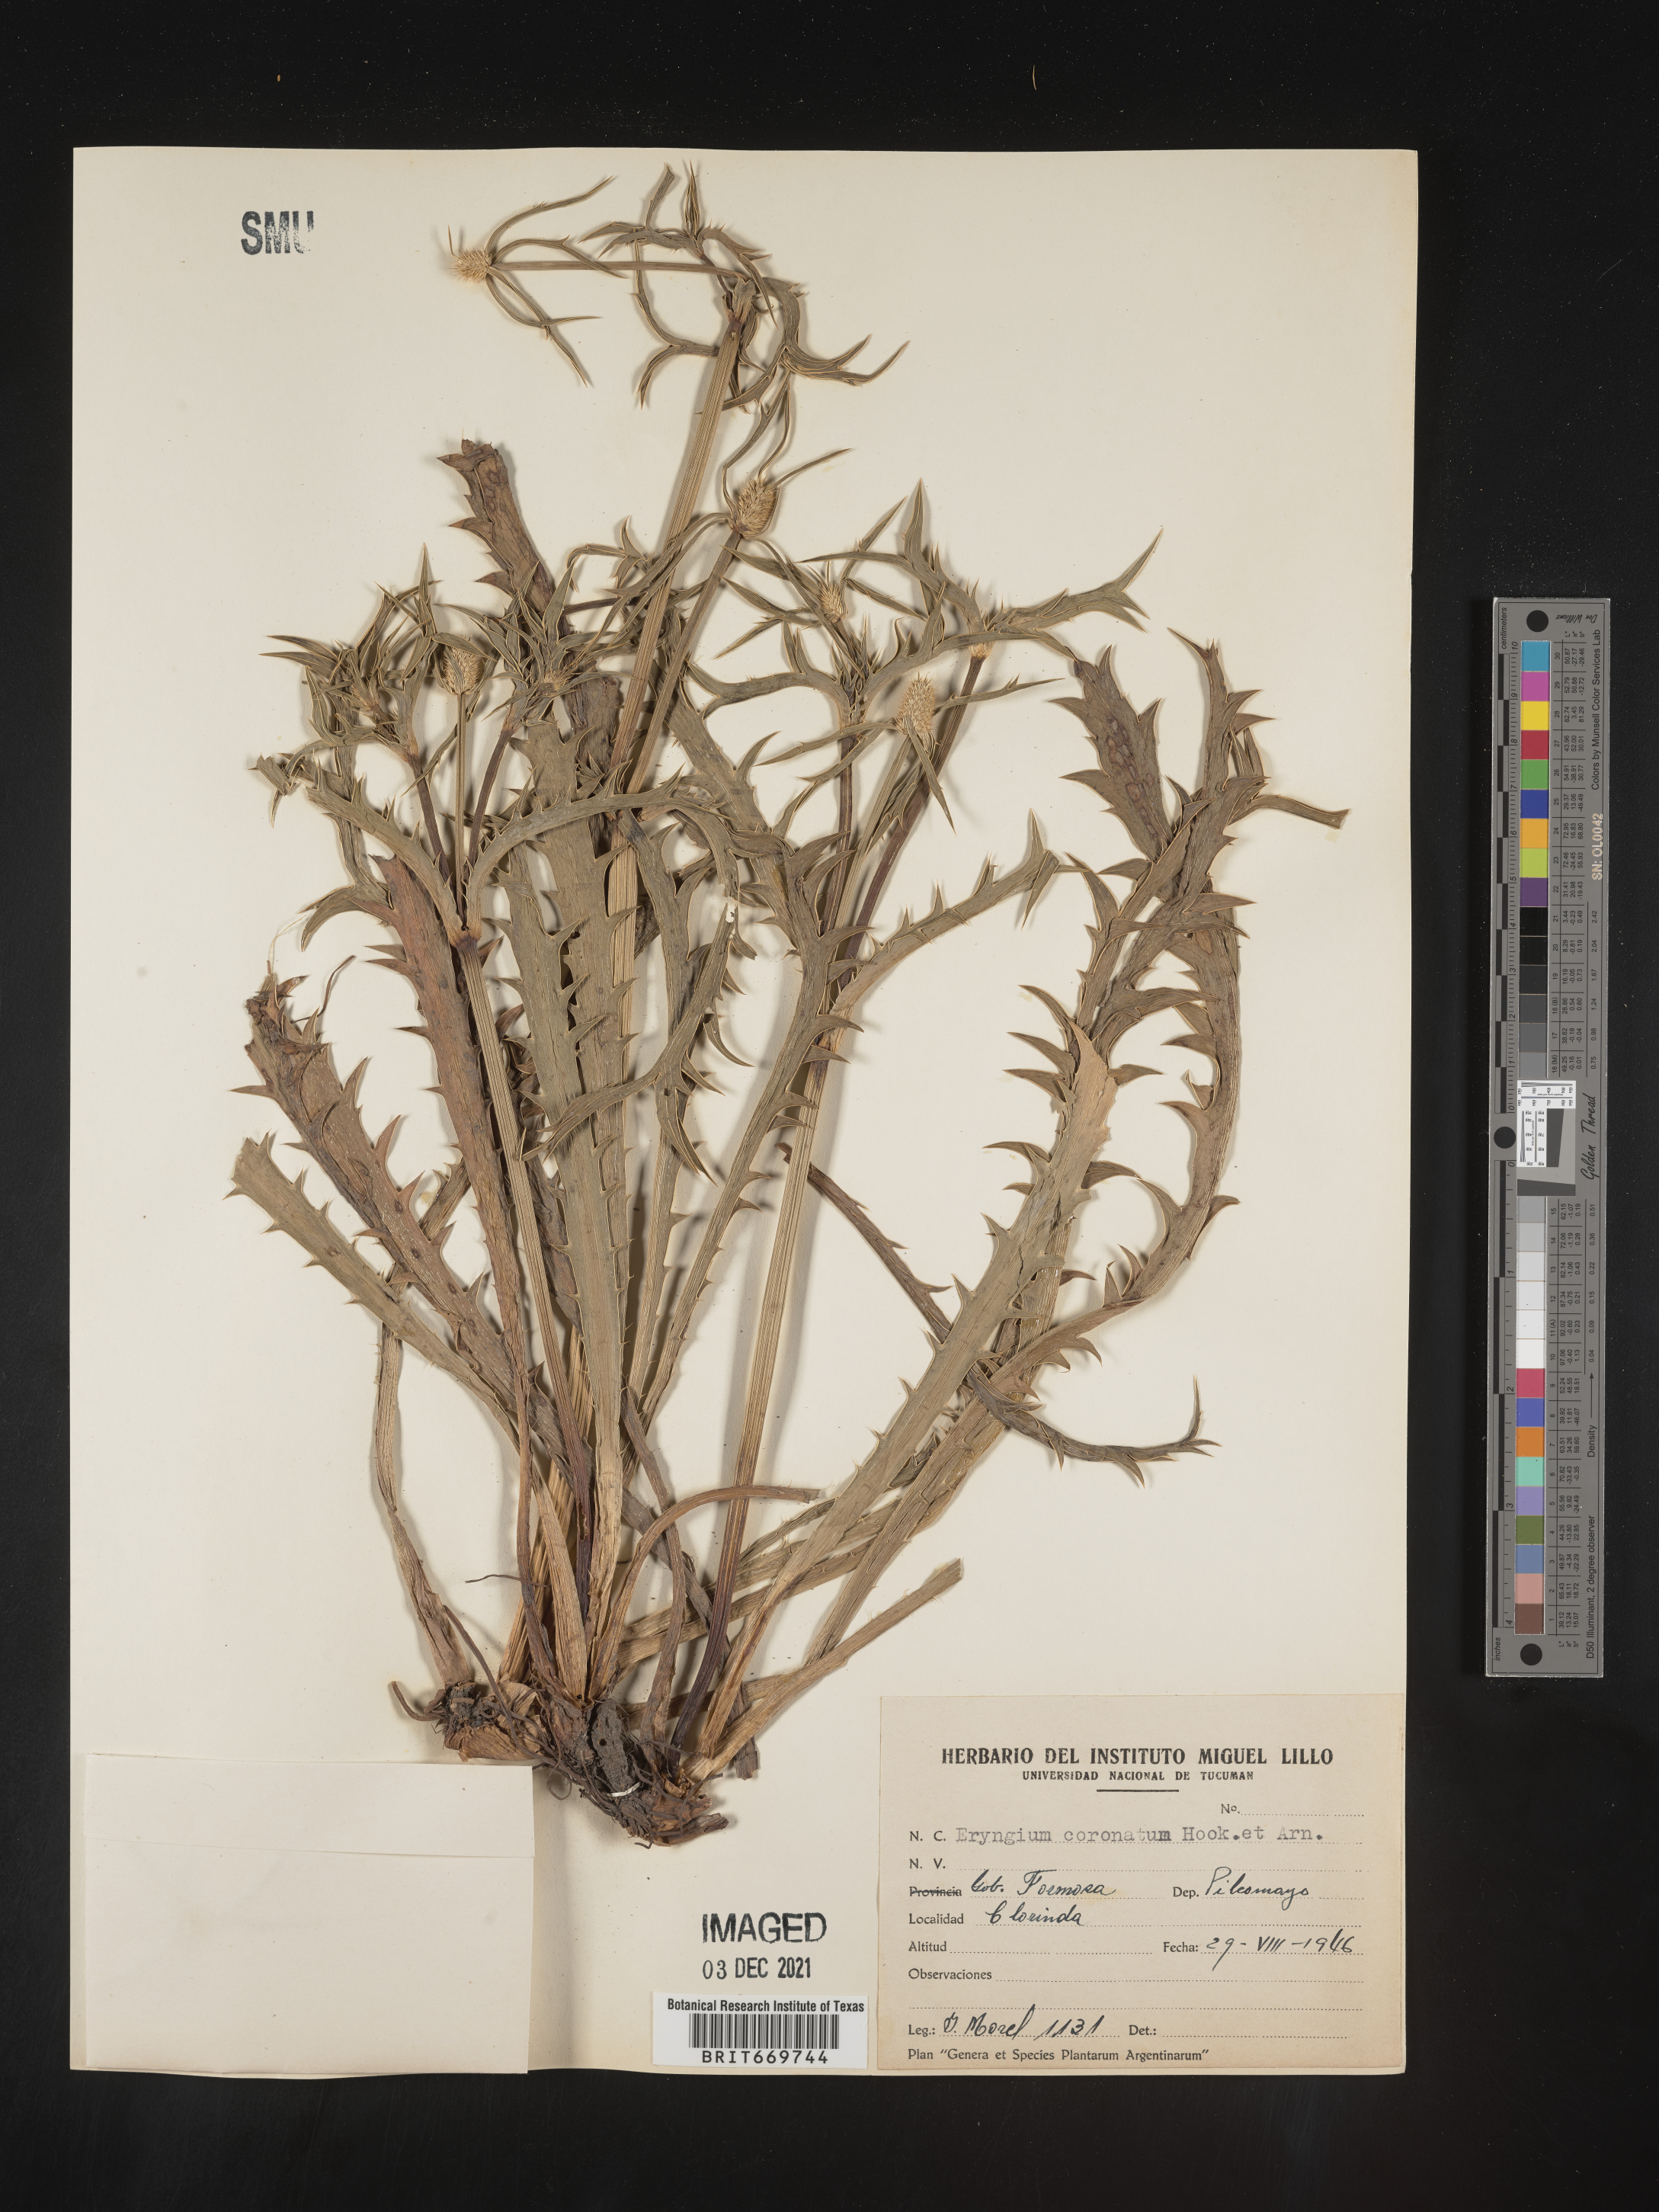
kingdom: Plantae
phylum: Tracheophyta
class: Magnoliopsida
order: Apiales
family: Apiaceae
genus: Eryngium
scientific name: Eryngium
